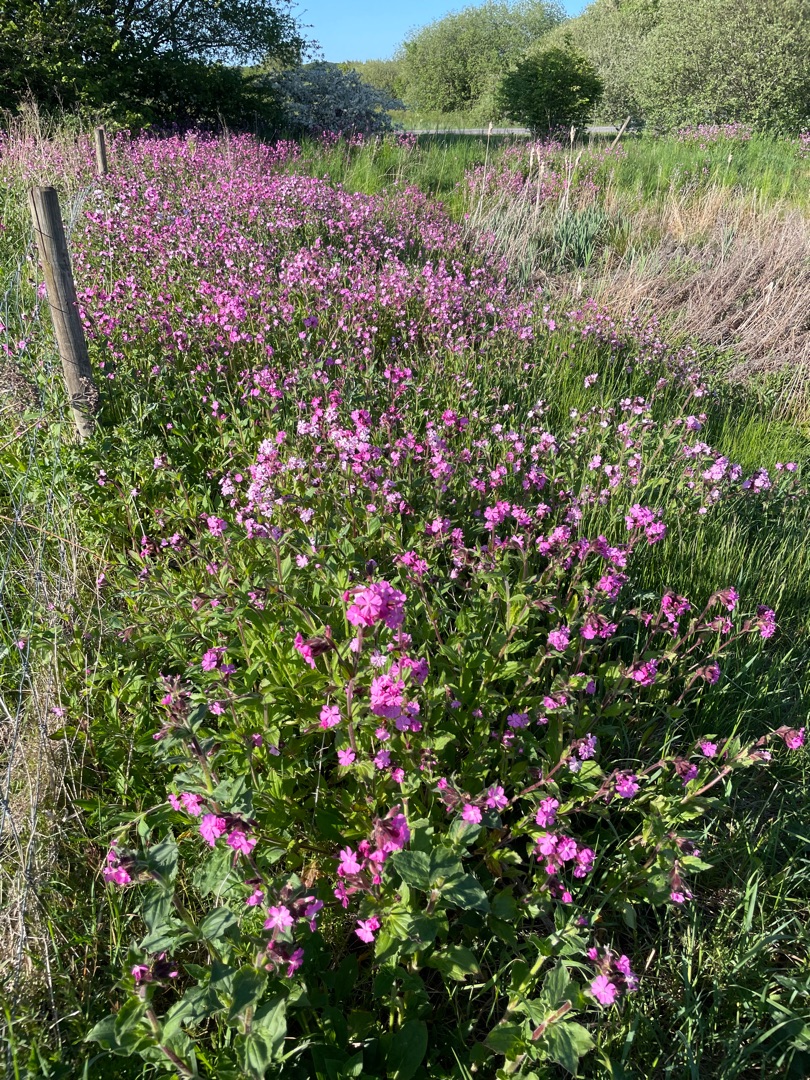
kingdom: Plantae
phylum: Tracheophyta
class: Magnoliopsida
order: Caryophyllales
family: Caryophyllaceae
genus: Silene
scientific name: Silene dioica
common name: Dagpragtstjerne
